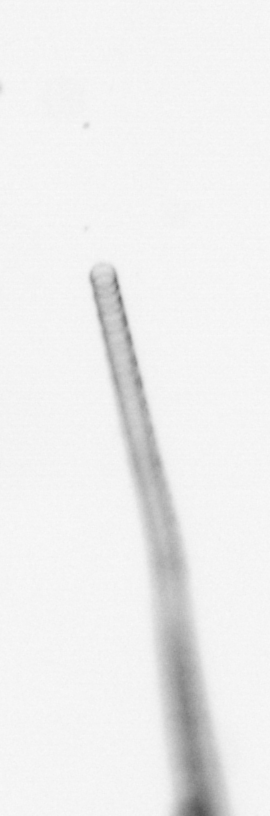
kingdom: Chromista
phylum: Ochrophyta
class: Bacillariophyceae
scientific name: Bacillariophyceae
